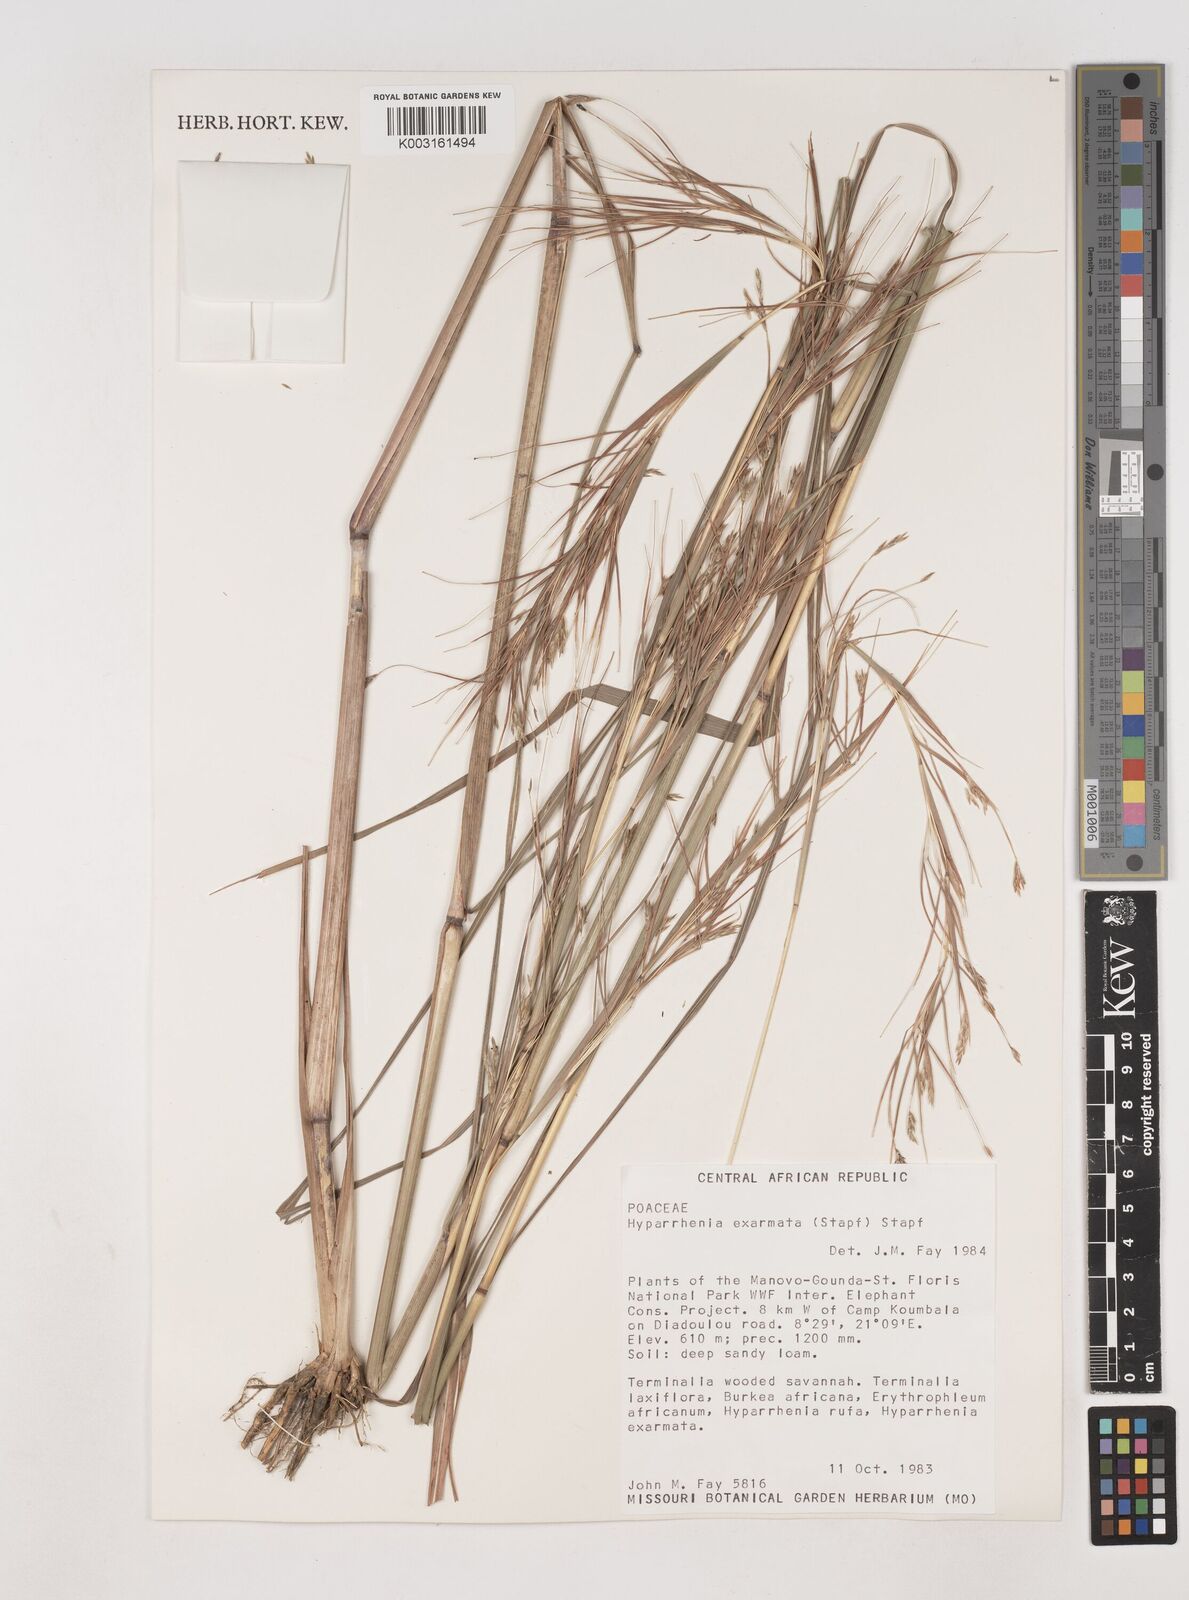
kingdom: Plantae
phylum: Tracheophyta
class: Liliopsida
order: Poales
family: Poaceae
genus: Hyparrhenia
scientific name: Hyparrhenia exarmata
